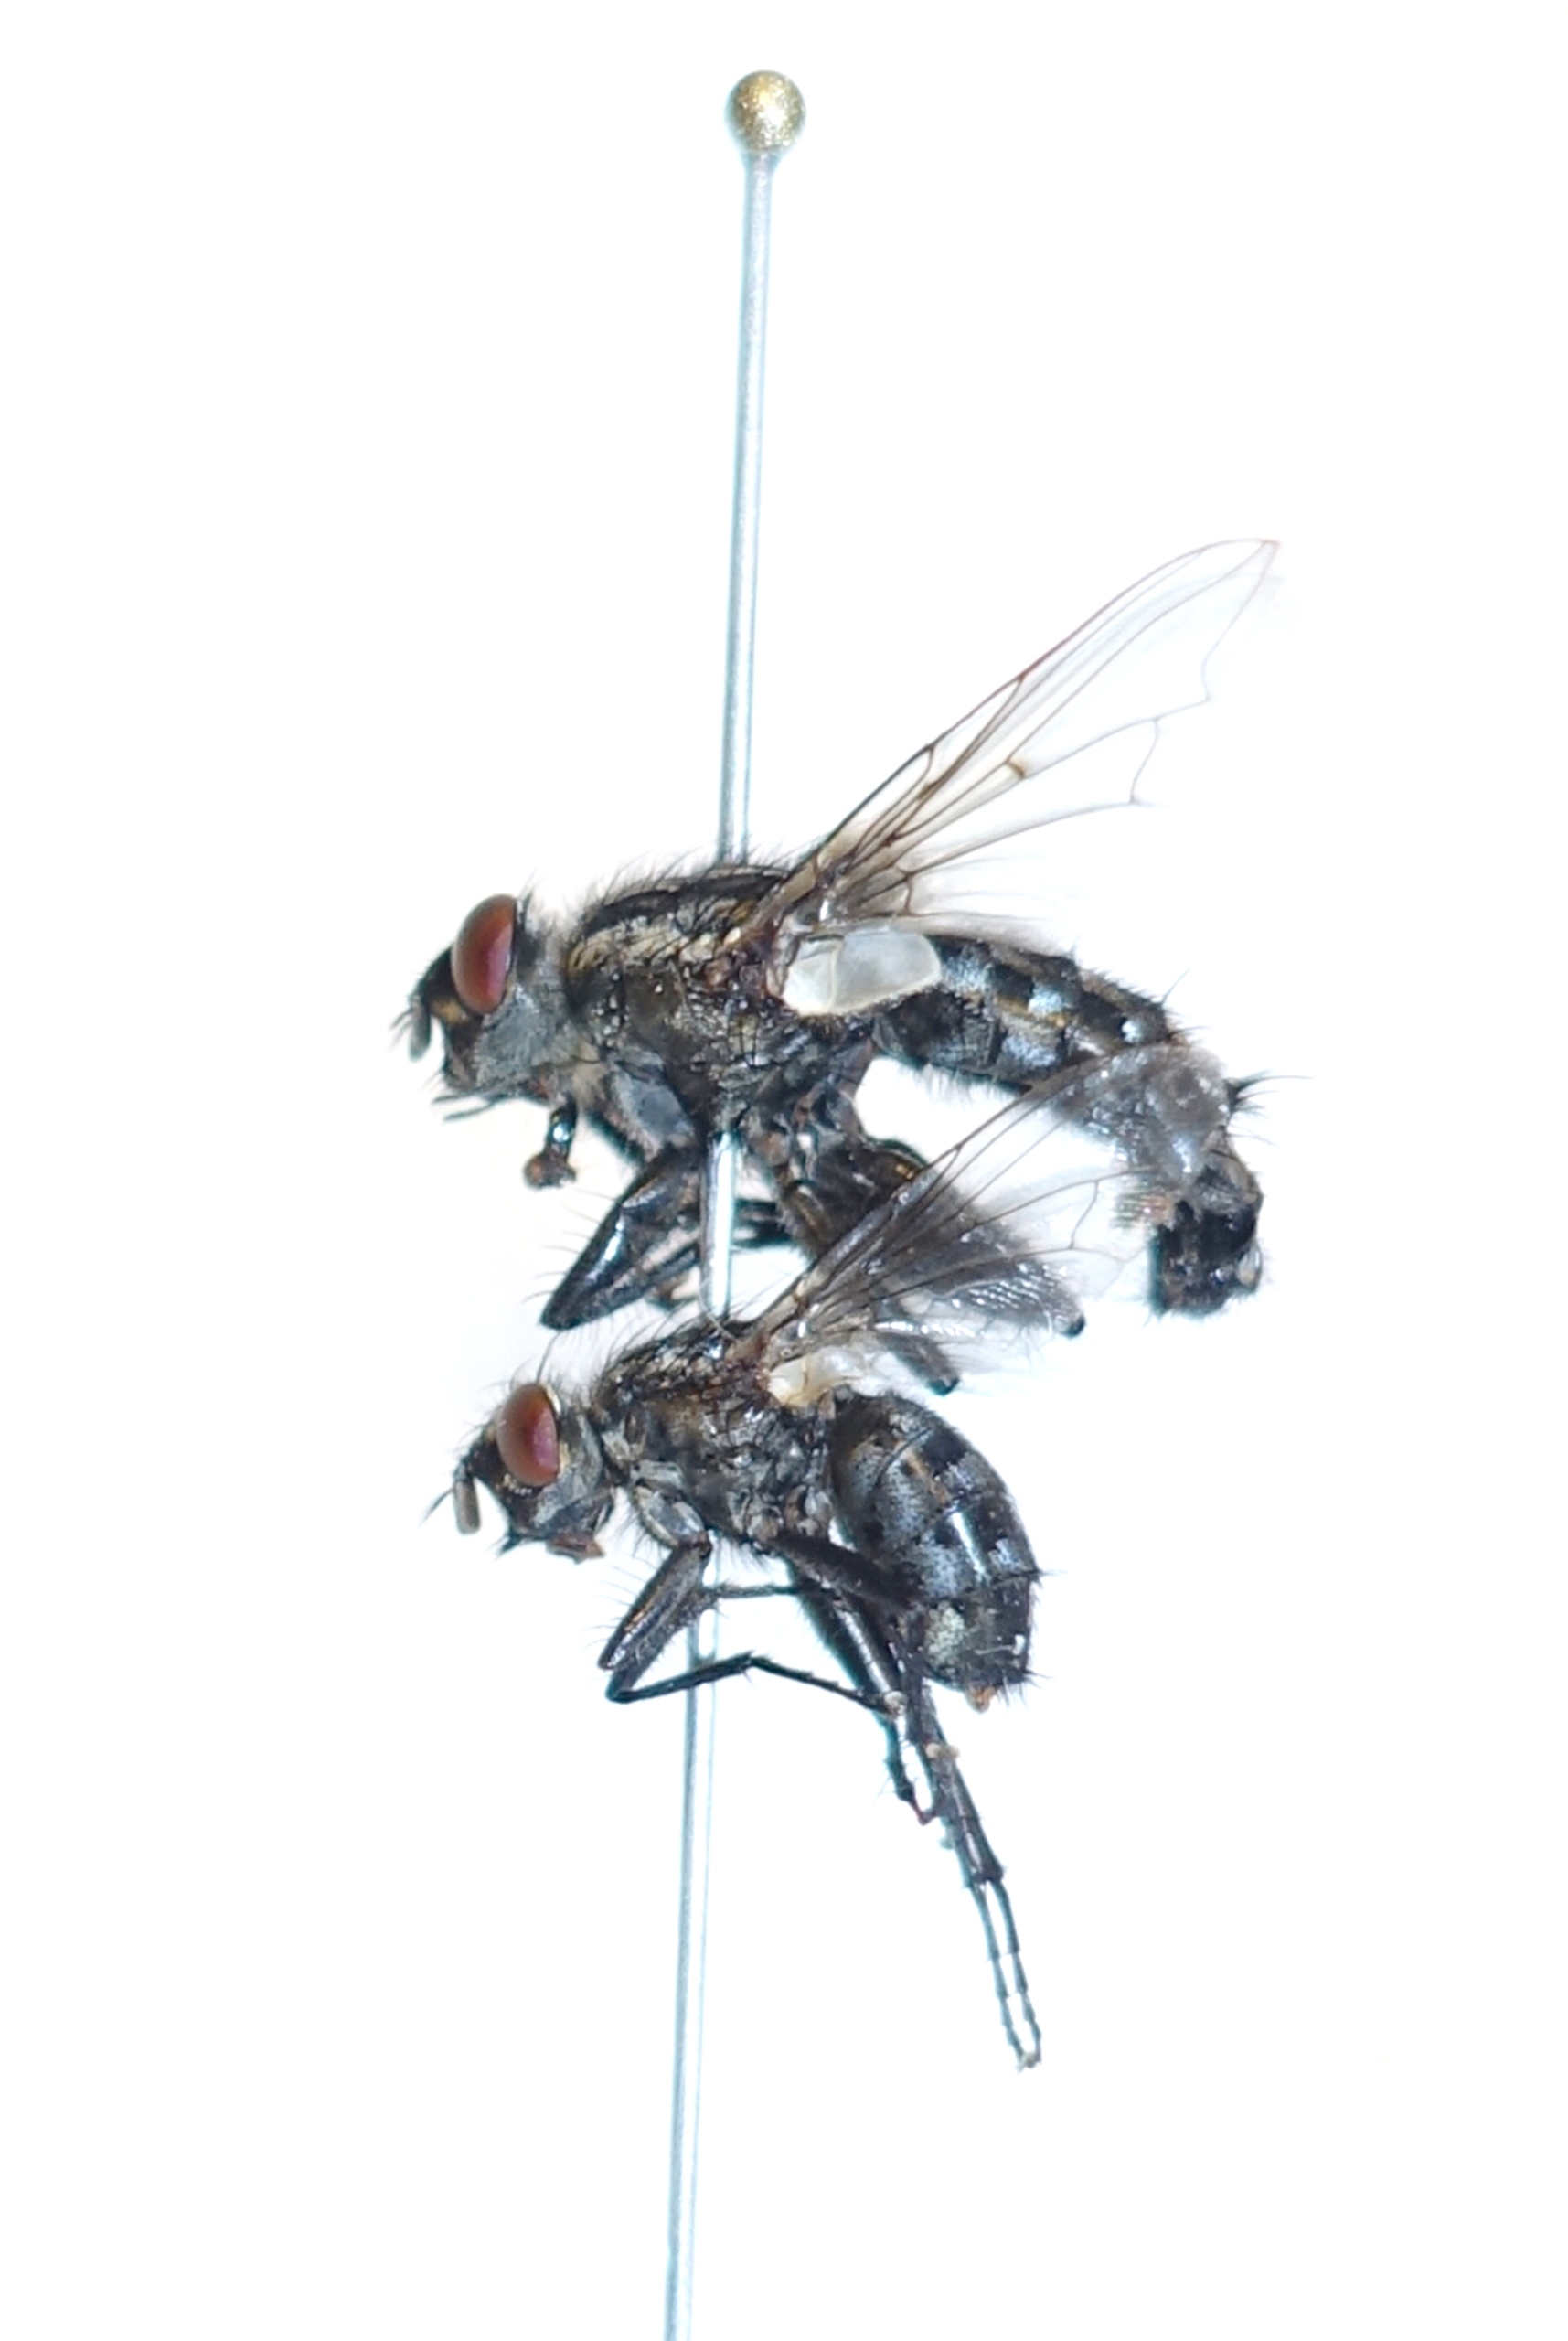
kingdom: Animalia
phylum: Arthropoda
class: Insecta
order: Diptera
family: Sarcophagidae
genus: Sarcophaga
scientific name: Sarcophaga subvicina
